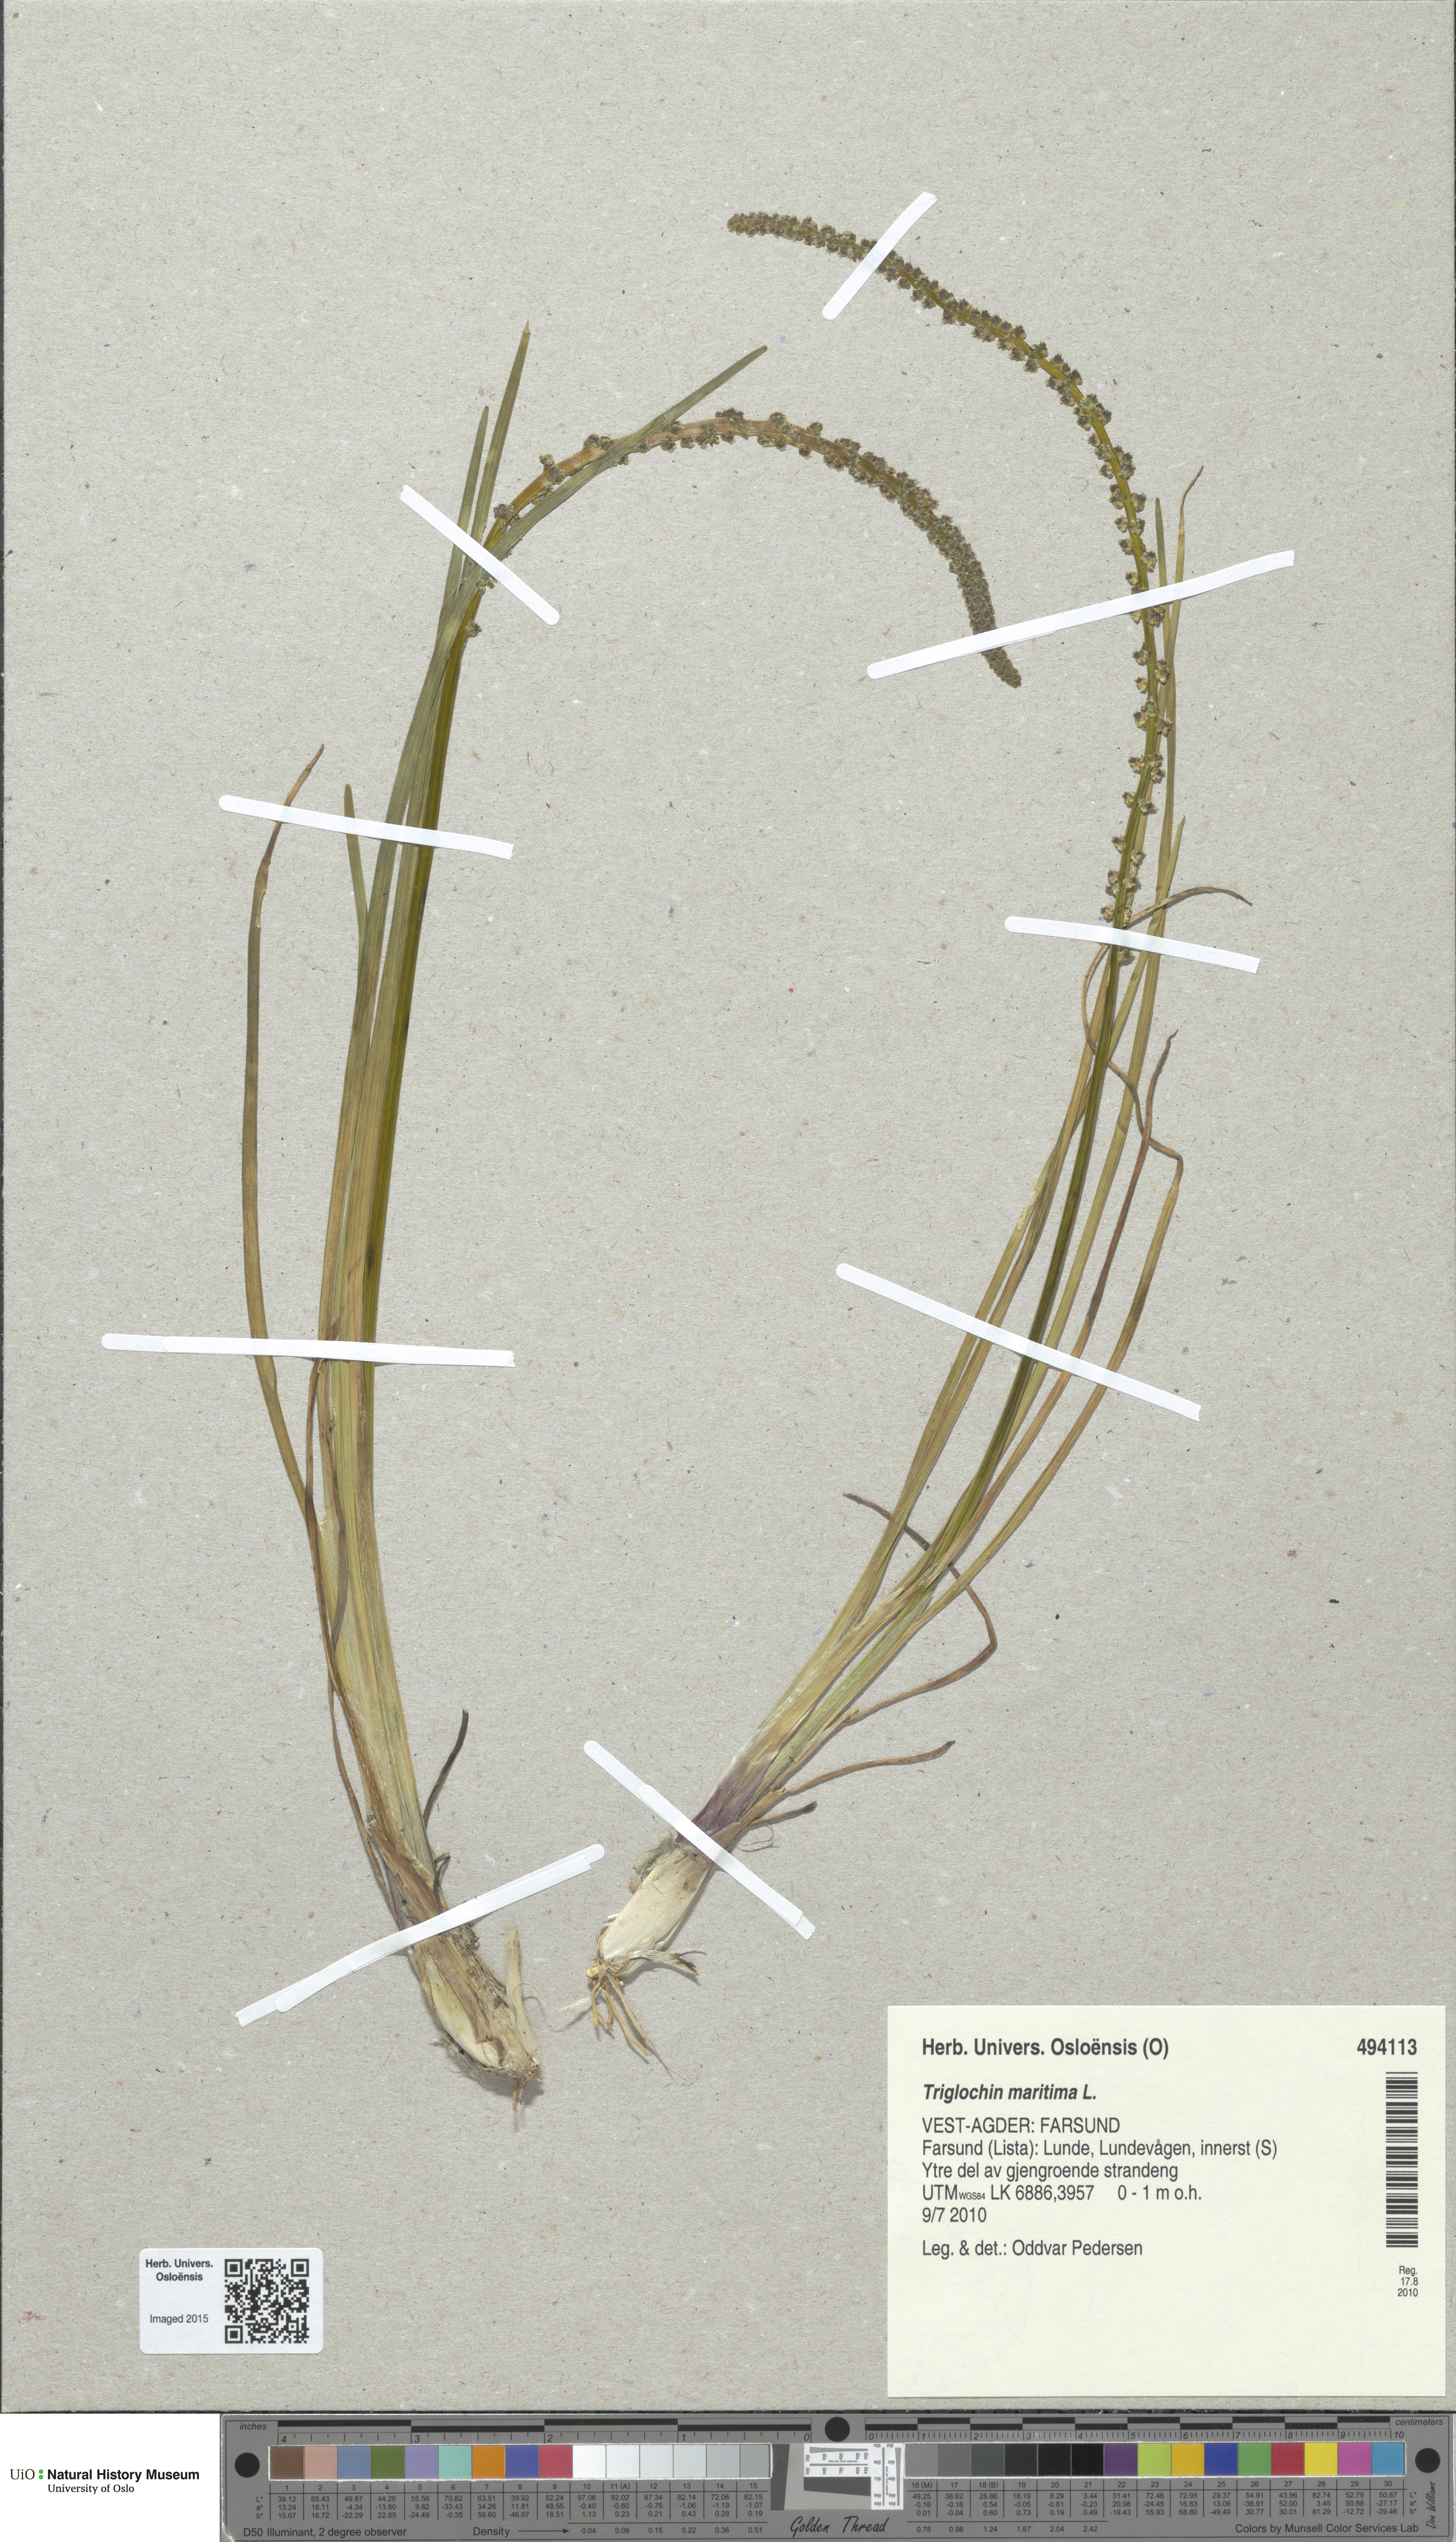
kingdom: Plantae
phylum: Tracheophyta
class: Liliopsida
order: Alismatales
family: Juncaginaceae
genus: Triglochin
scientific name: Triglochin maritima
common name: Sea arrowgrass
